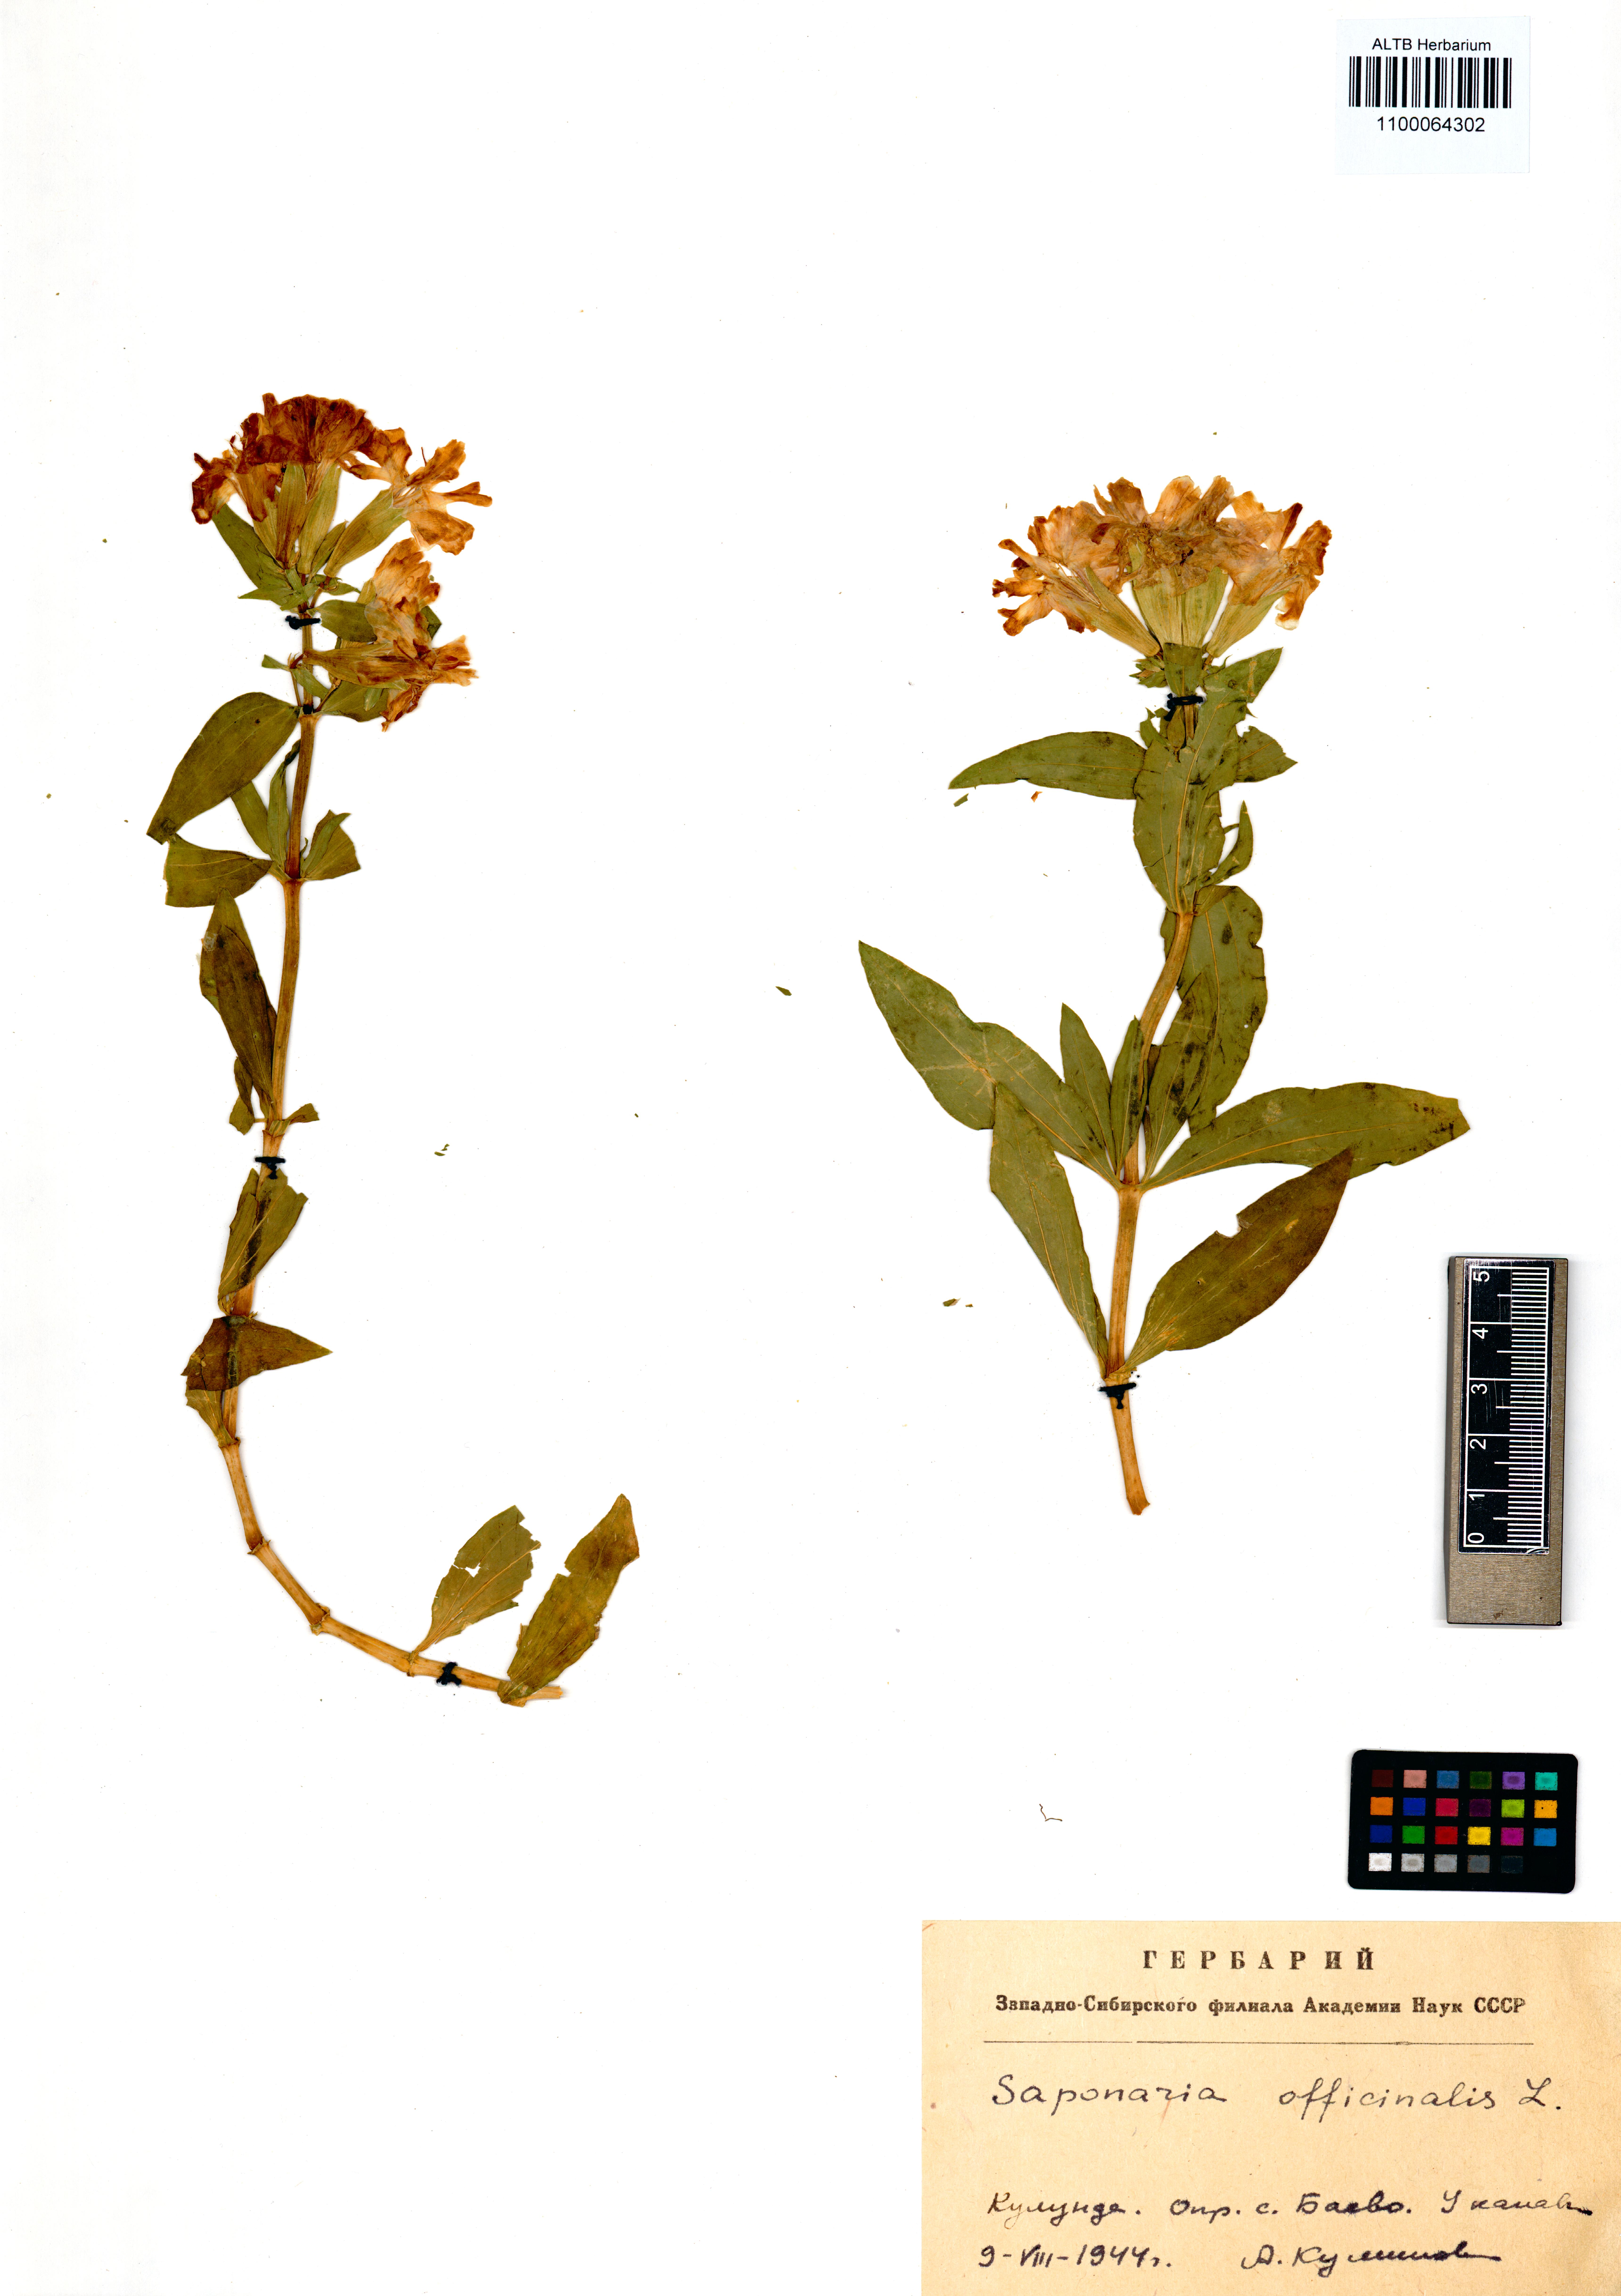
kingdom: Plantae
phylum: Tracheophyta
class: Magnoliopsida
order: Caryophyllales
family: Caryophyllaceae
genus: Saponaria
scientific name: Saponaria officinalis
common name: Soapwort
